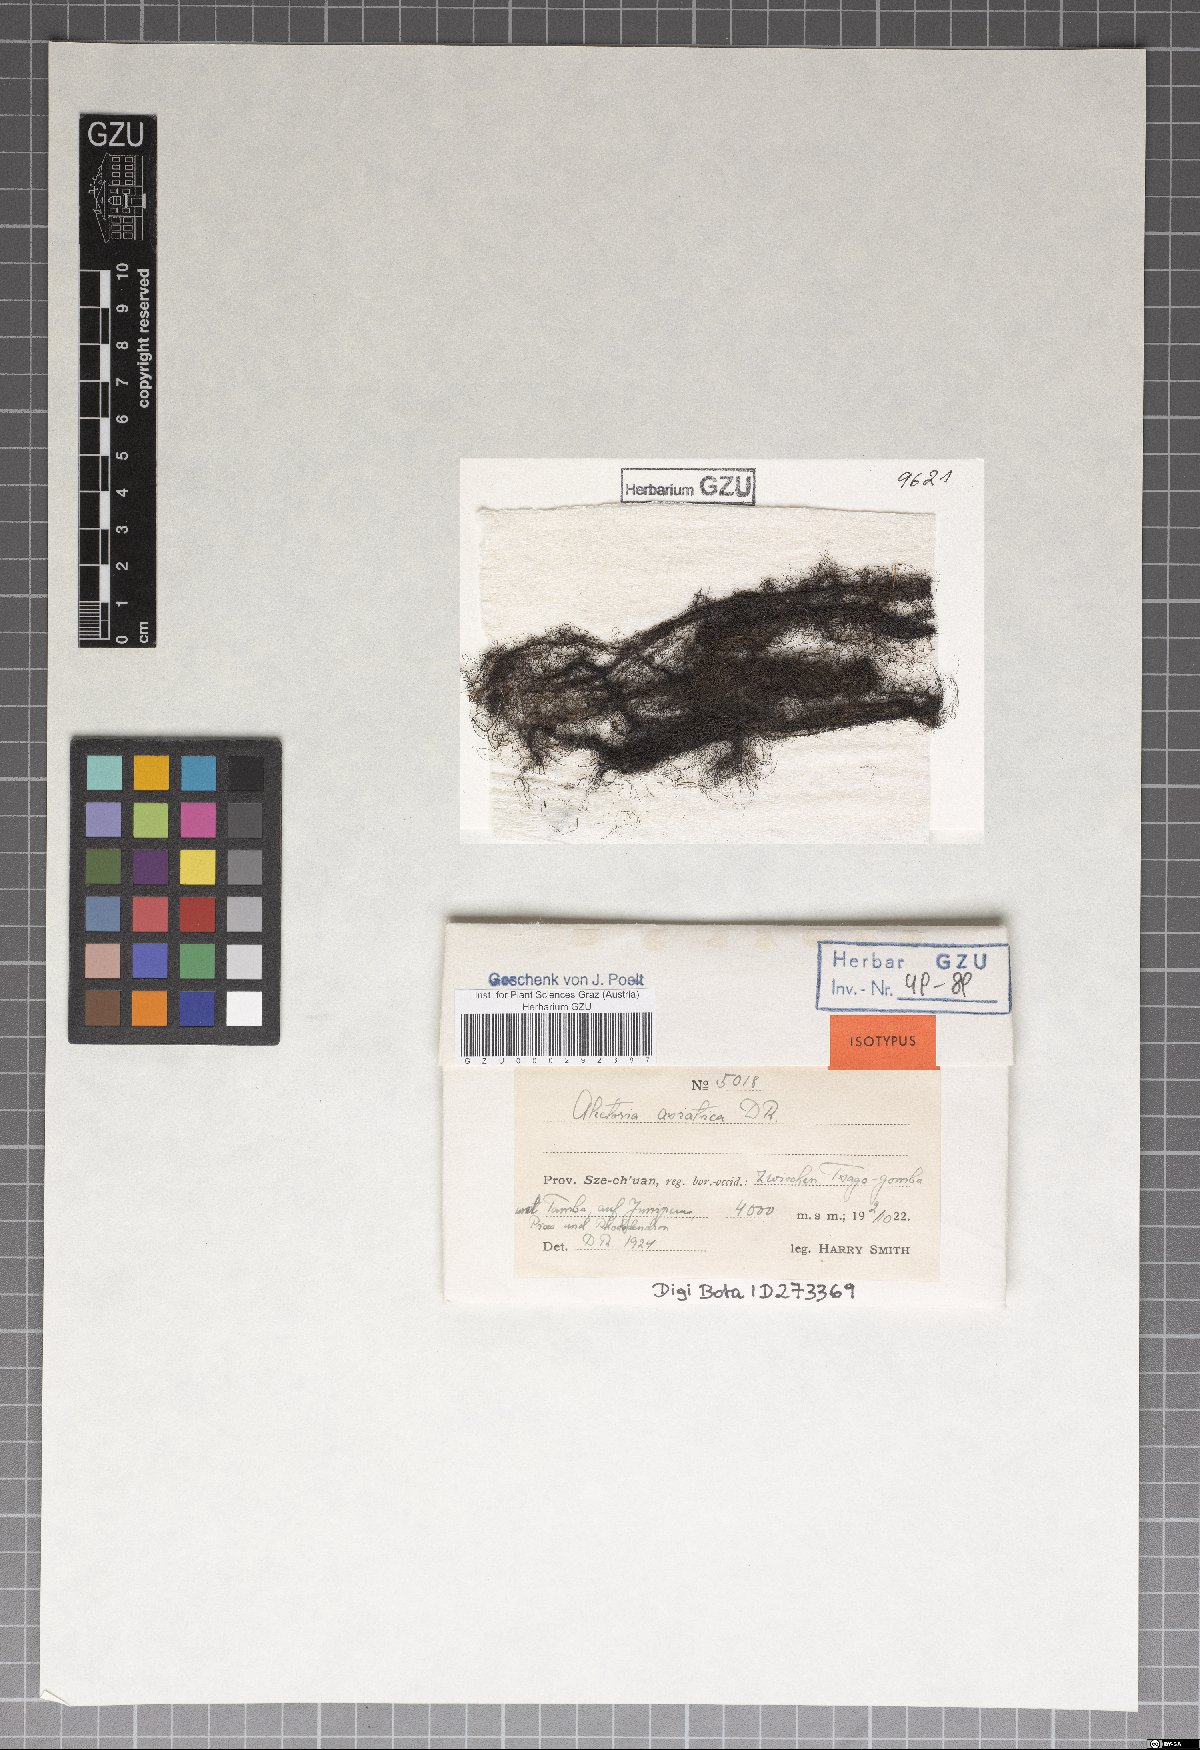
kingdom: Fungi
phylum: Ascomycota
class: Lecanoromycetes
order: Lecanorales
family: Parmeliaceae
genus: Alectoria
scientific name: Alectoria asiatica
